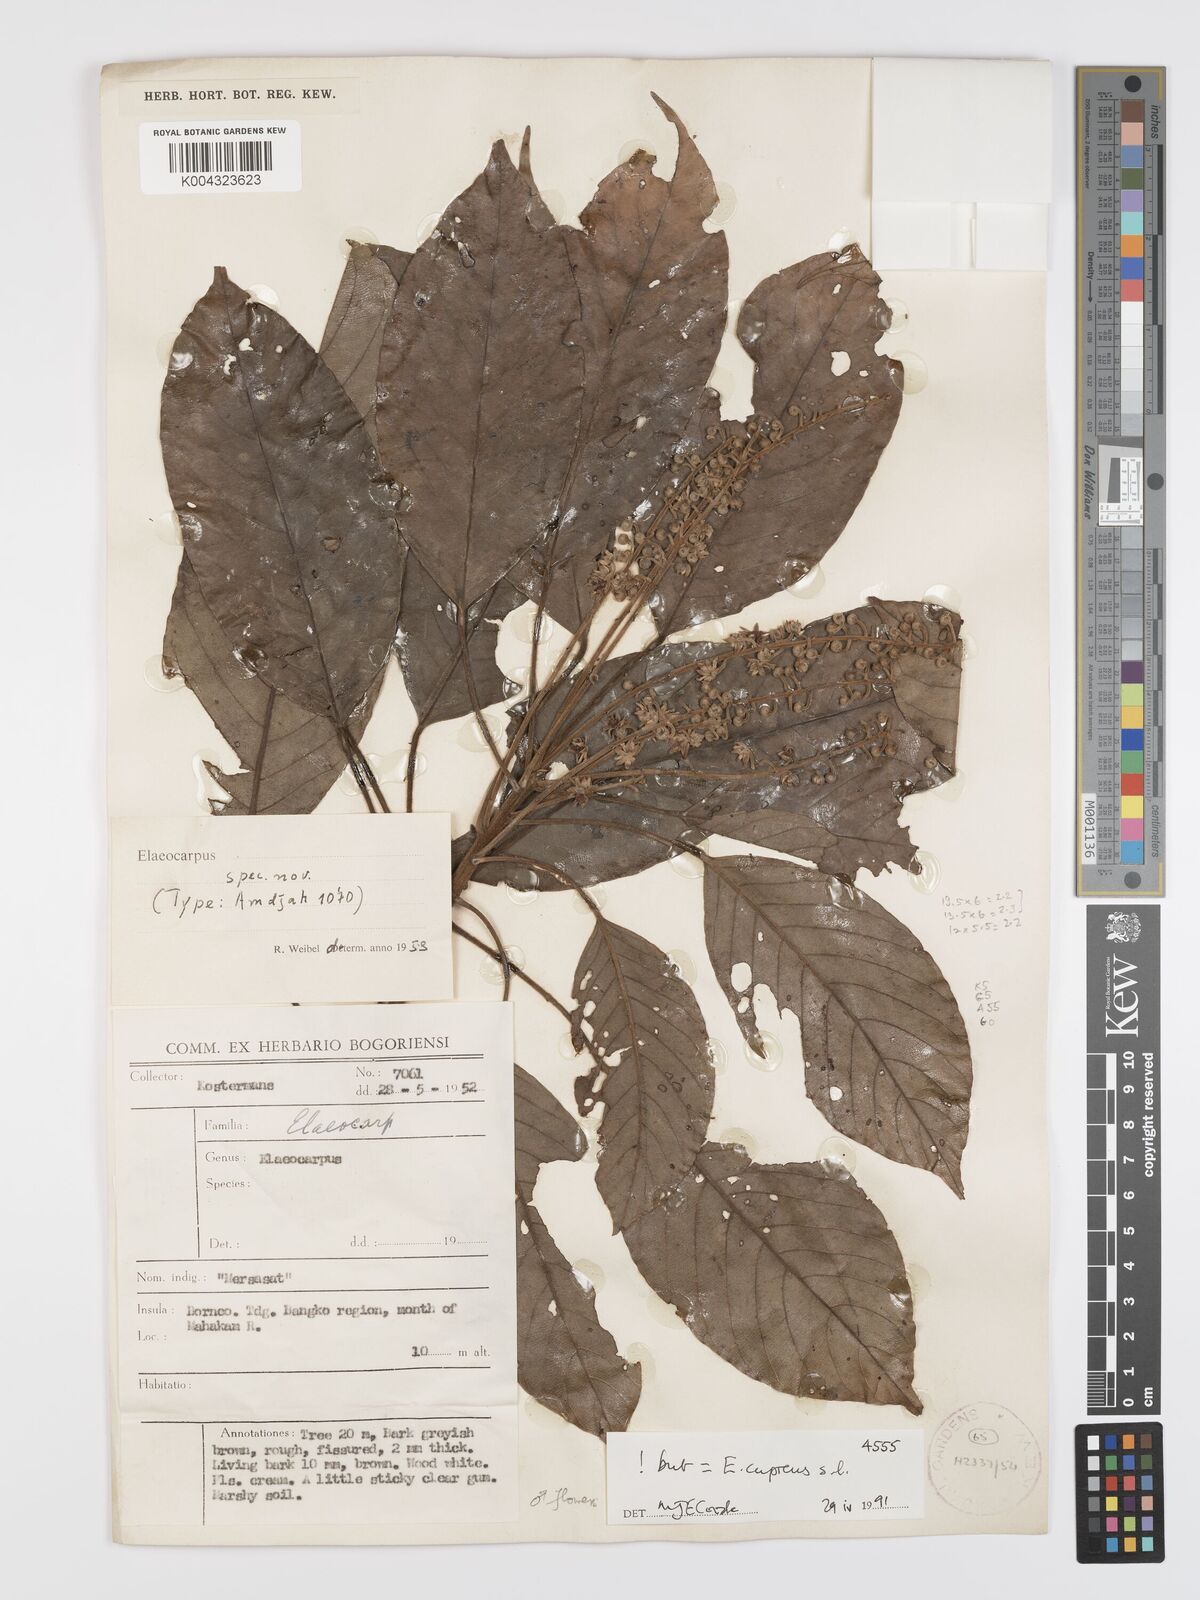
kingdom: Plantae
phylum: Tracheophyta
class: Magnoliopsida
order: Oxalidales
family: Elaeocarpaceae
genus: Elaeocarpus
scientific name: Elaeocarpus cupreus
